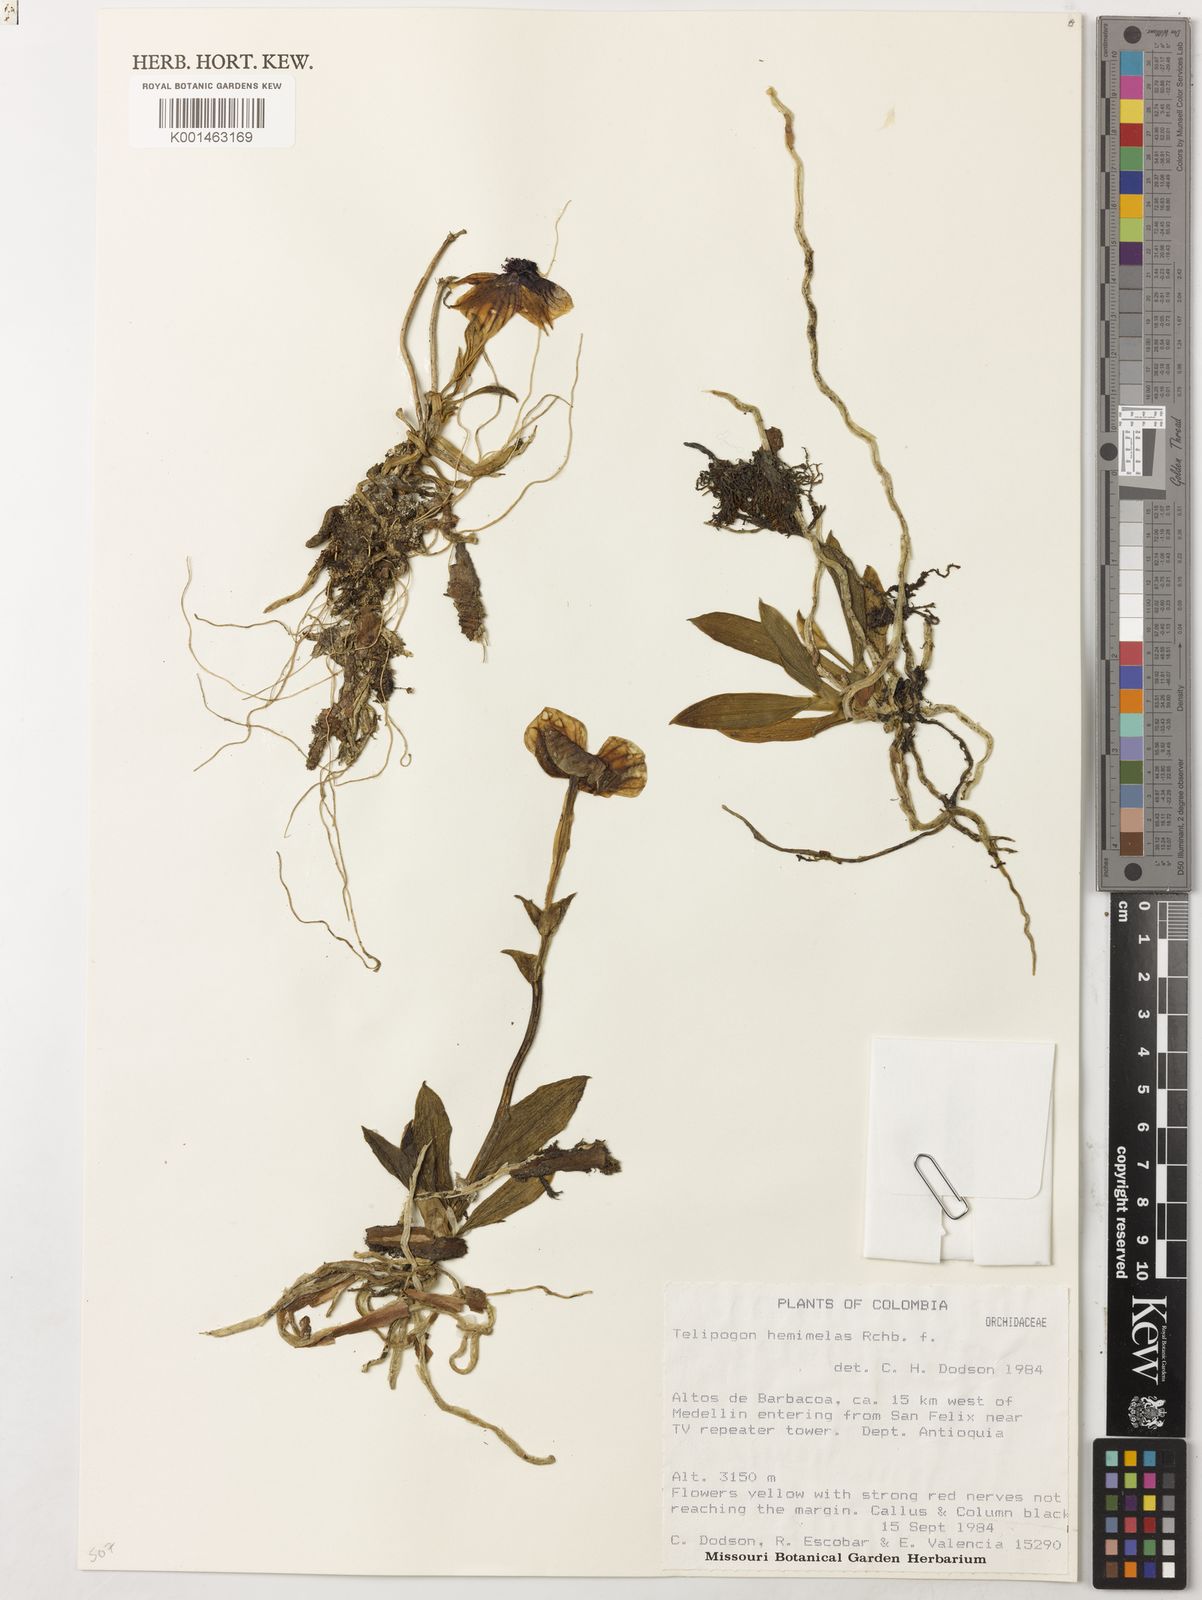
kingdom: Plantae
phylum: Tracheophyta
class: Liliopsida
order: Asparagales
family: Orchidaceae
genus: Telipogon
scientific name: Telipogon hemimelas
